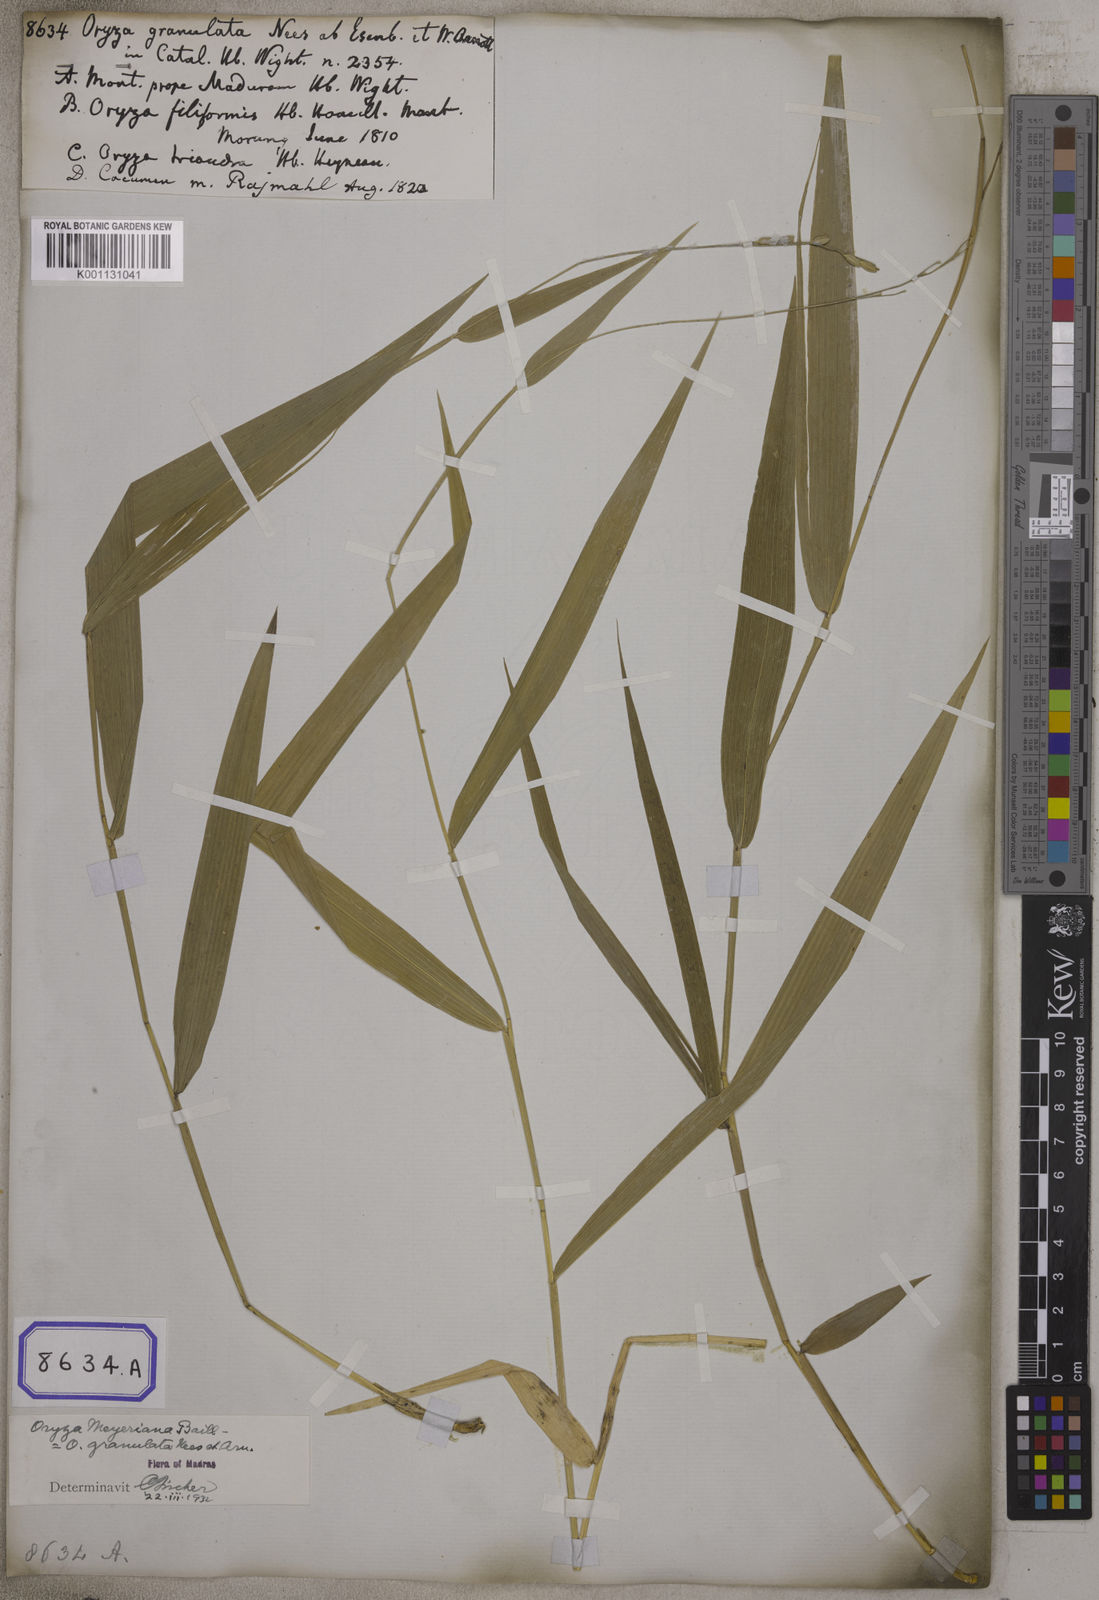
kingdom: Plantae
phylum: Tracheophyta
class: Liliopsida
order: Poales
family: Poaceae
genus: Oryza
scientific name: Oryza
